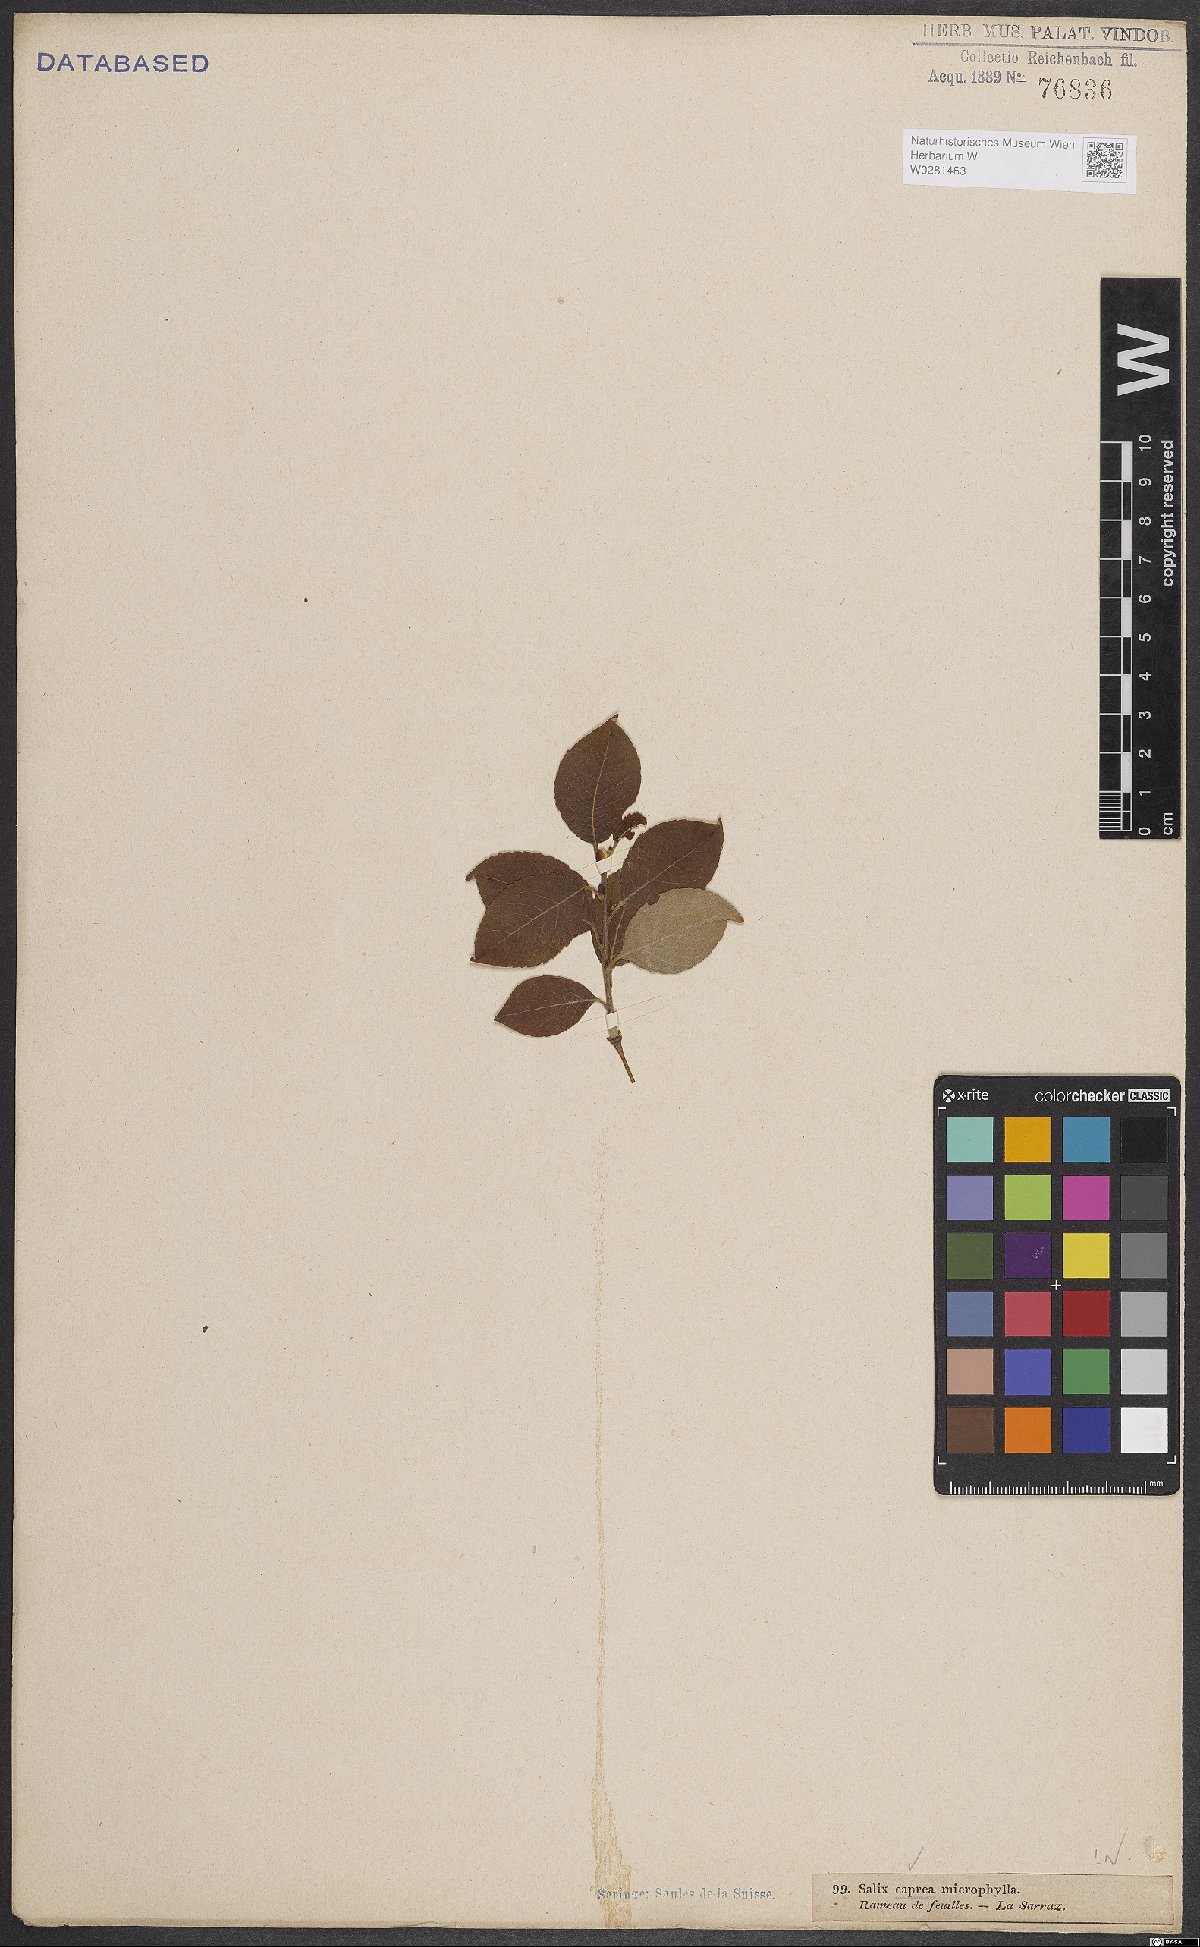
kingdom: Plantae
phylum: Tracheophyta
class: Magnoliopsida
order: Malpighiales
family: Salicaceae
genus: Salix
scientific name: Salix caprea
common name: Goat willow
